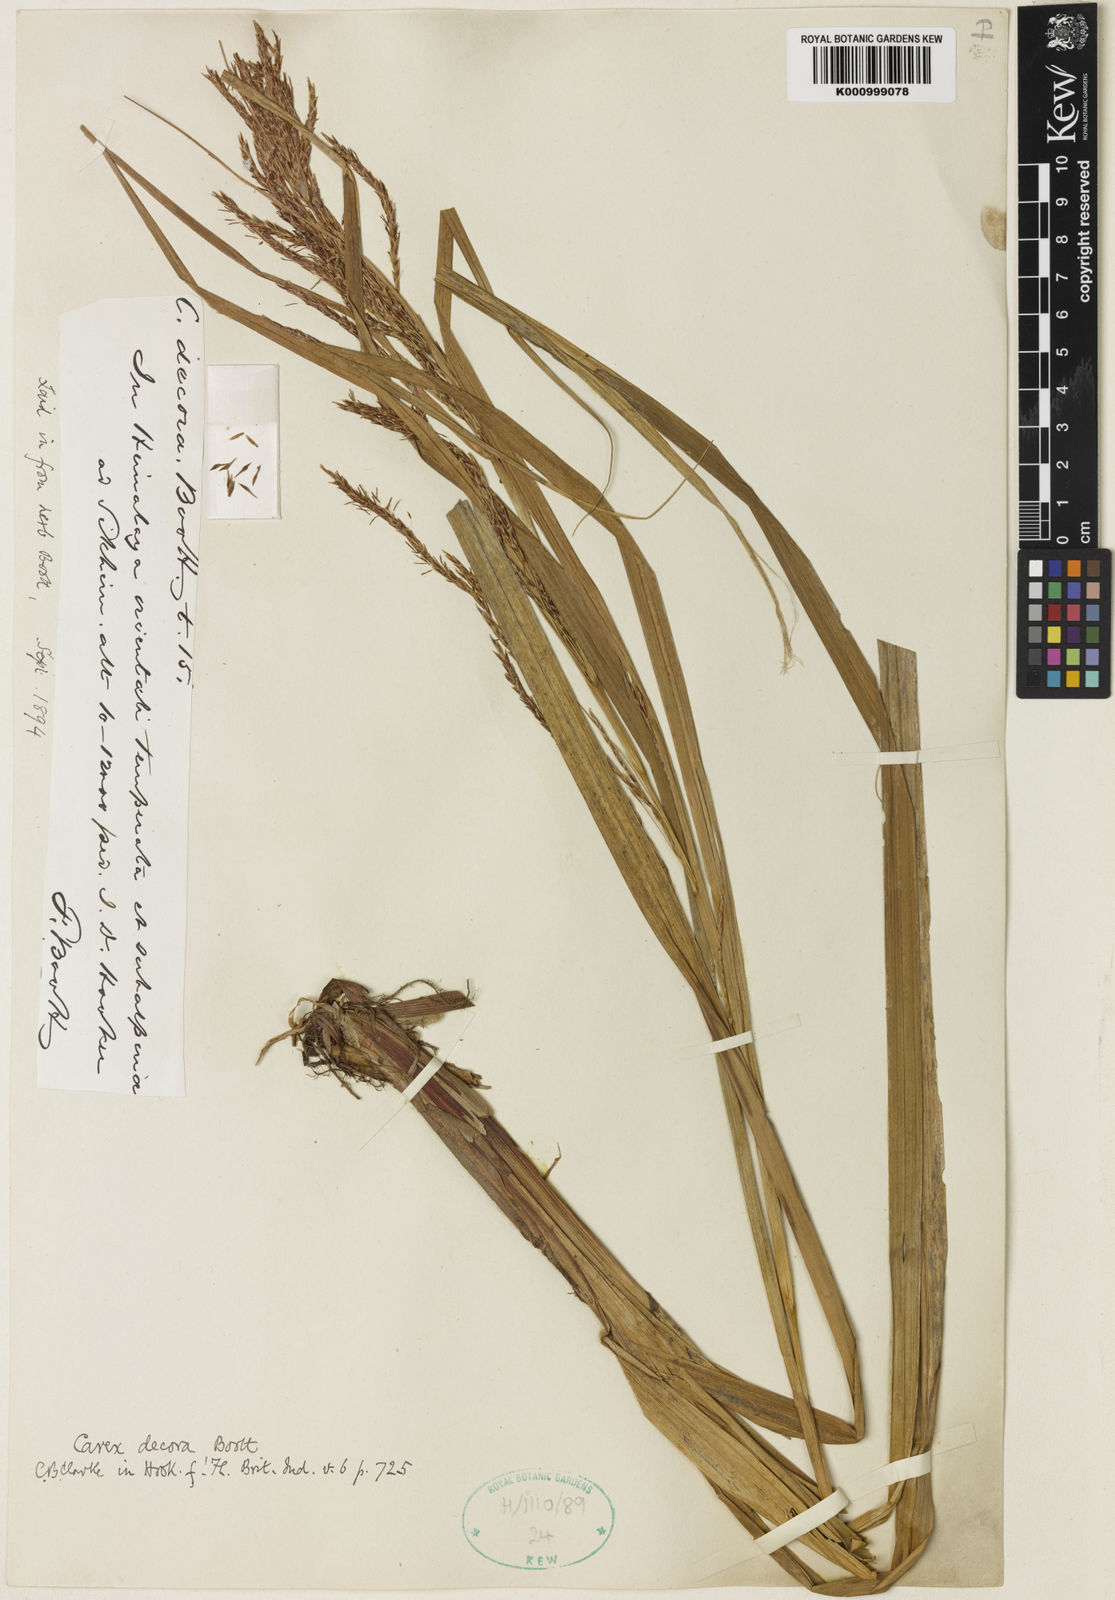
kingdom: Plantae
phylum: Tracheophyta
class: Liliopsida
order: Poales
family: Cyperaceae
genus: Carex
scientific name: Carex decora
